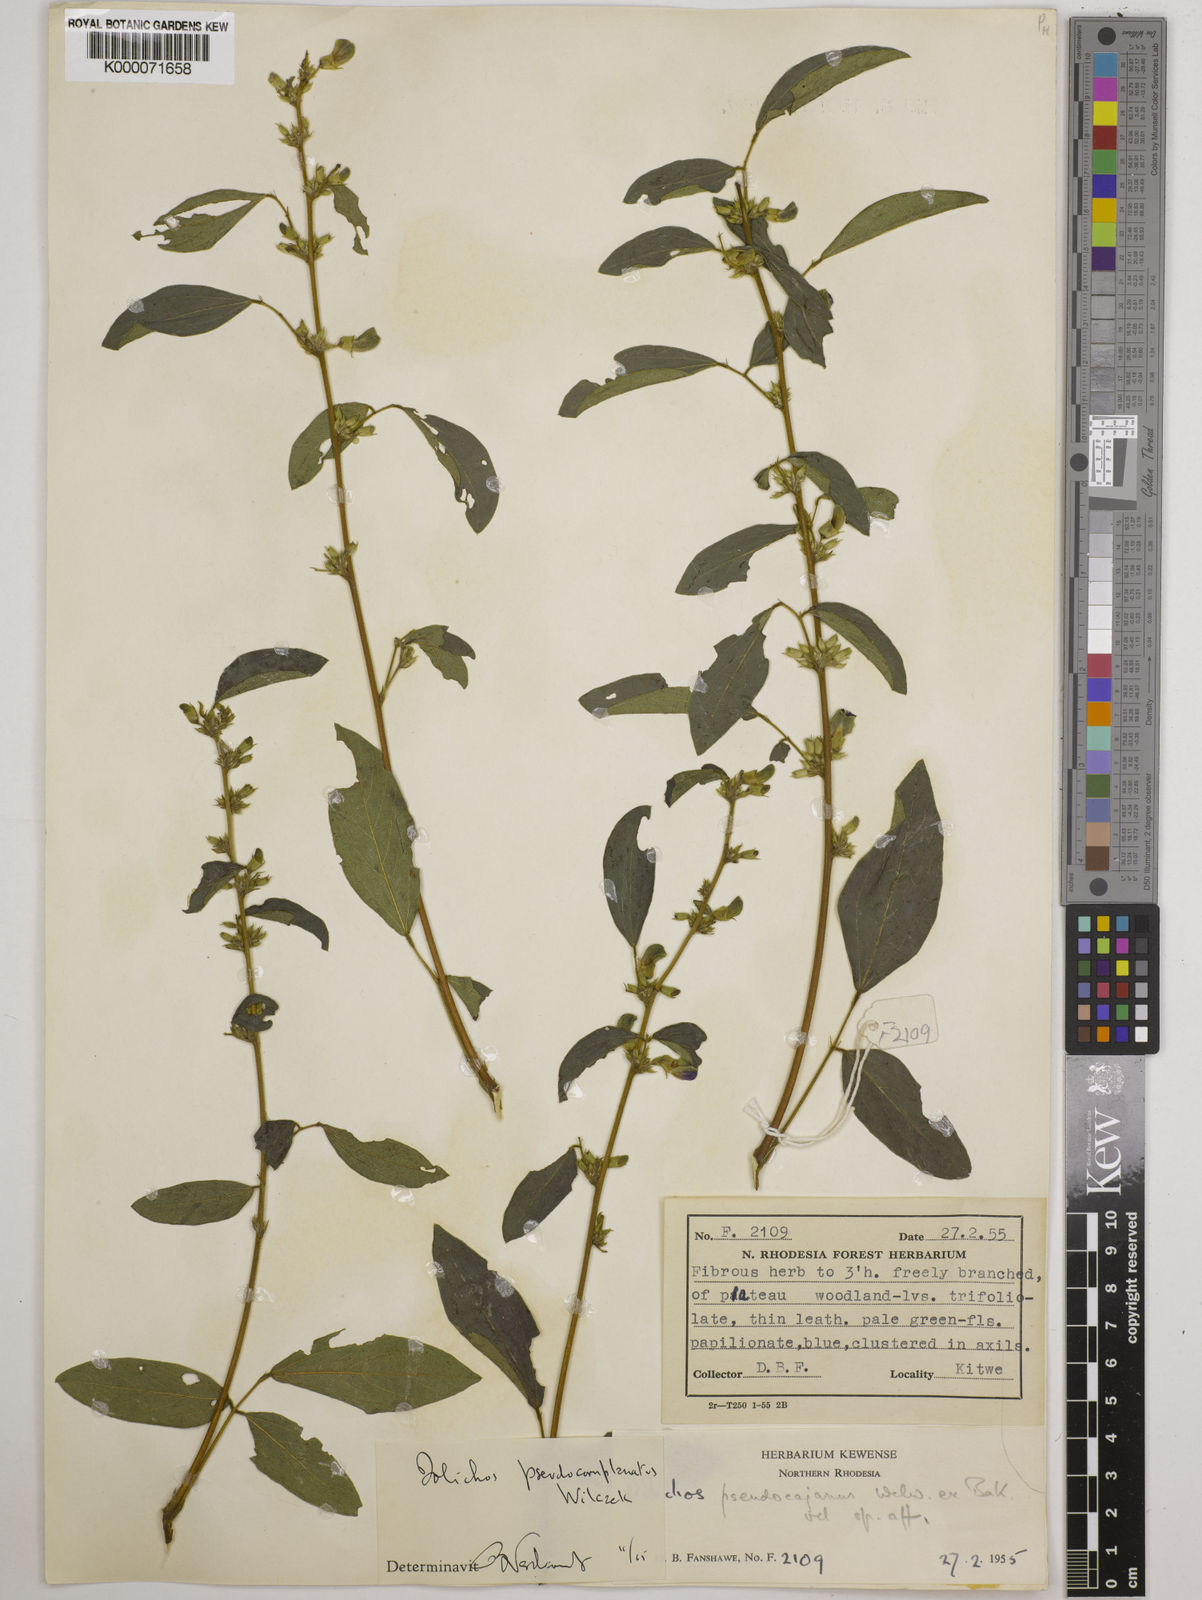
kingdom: Plantae
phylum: Tracheophyta
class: Magnoliopsida
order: Fabales
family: Fabaceae
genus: Dolichos
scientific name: Dolichos
